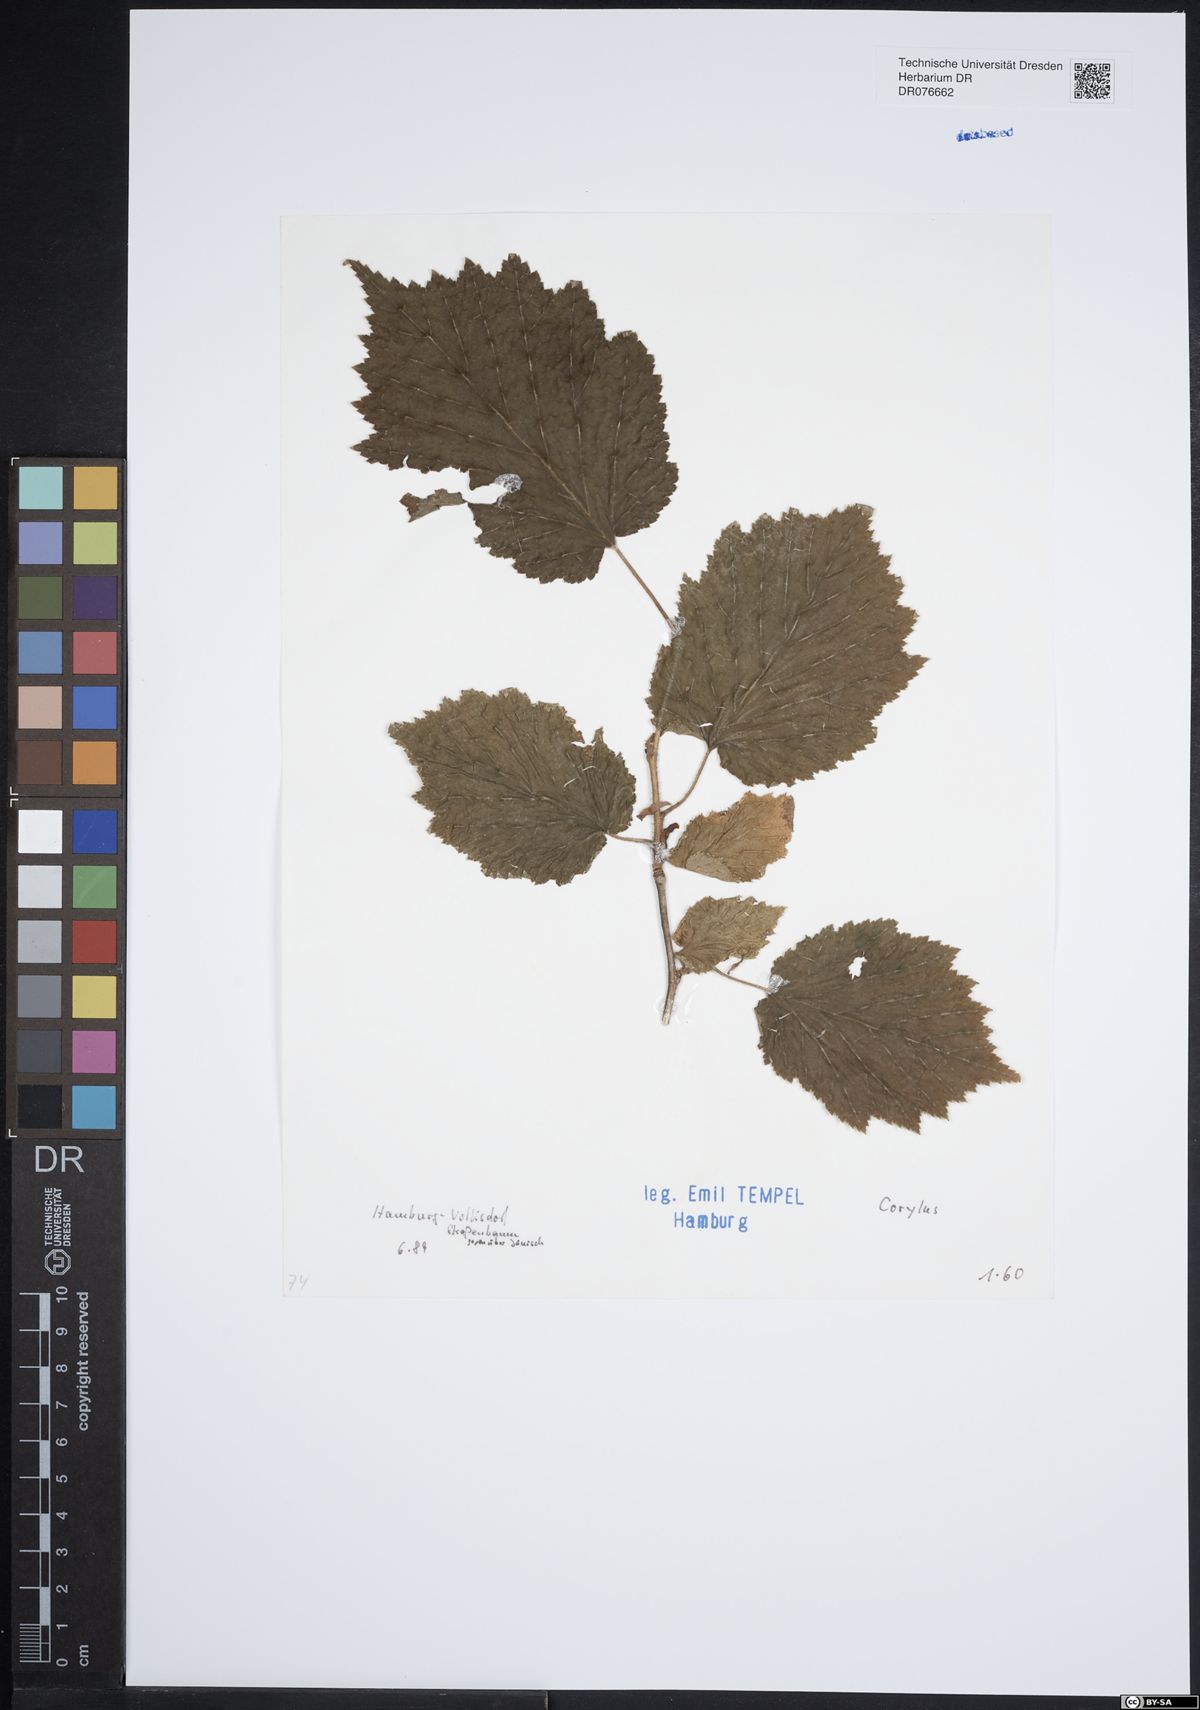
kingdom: Plantae
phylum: Tracheophyta
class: Magnoliopsida
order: Fagales
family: Betulaceae
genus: Corylus
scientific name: Corylus
